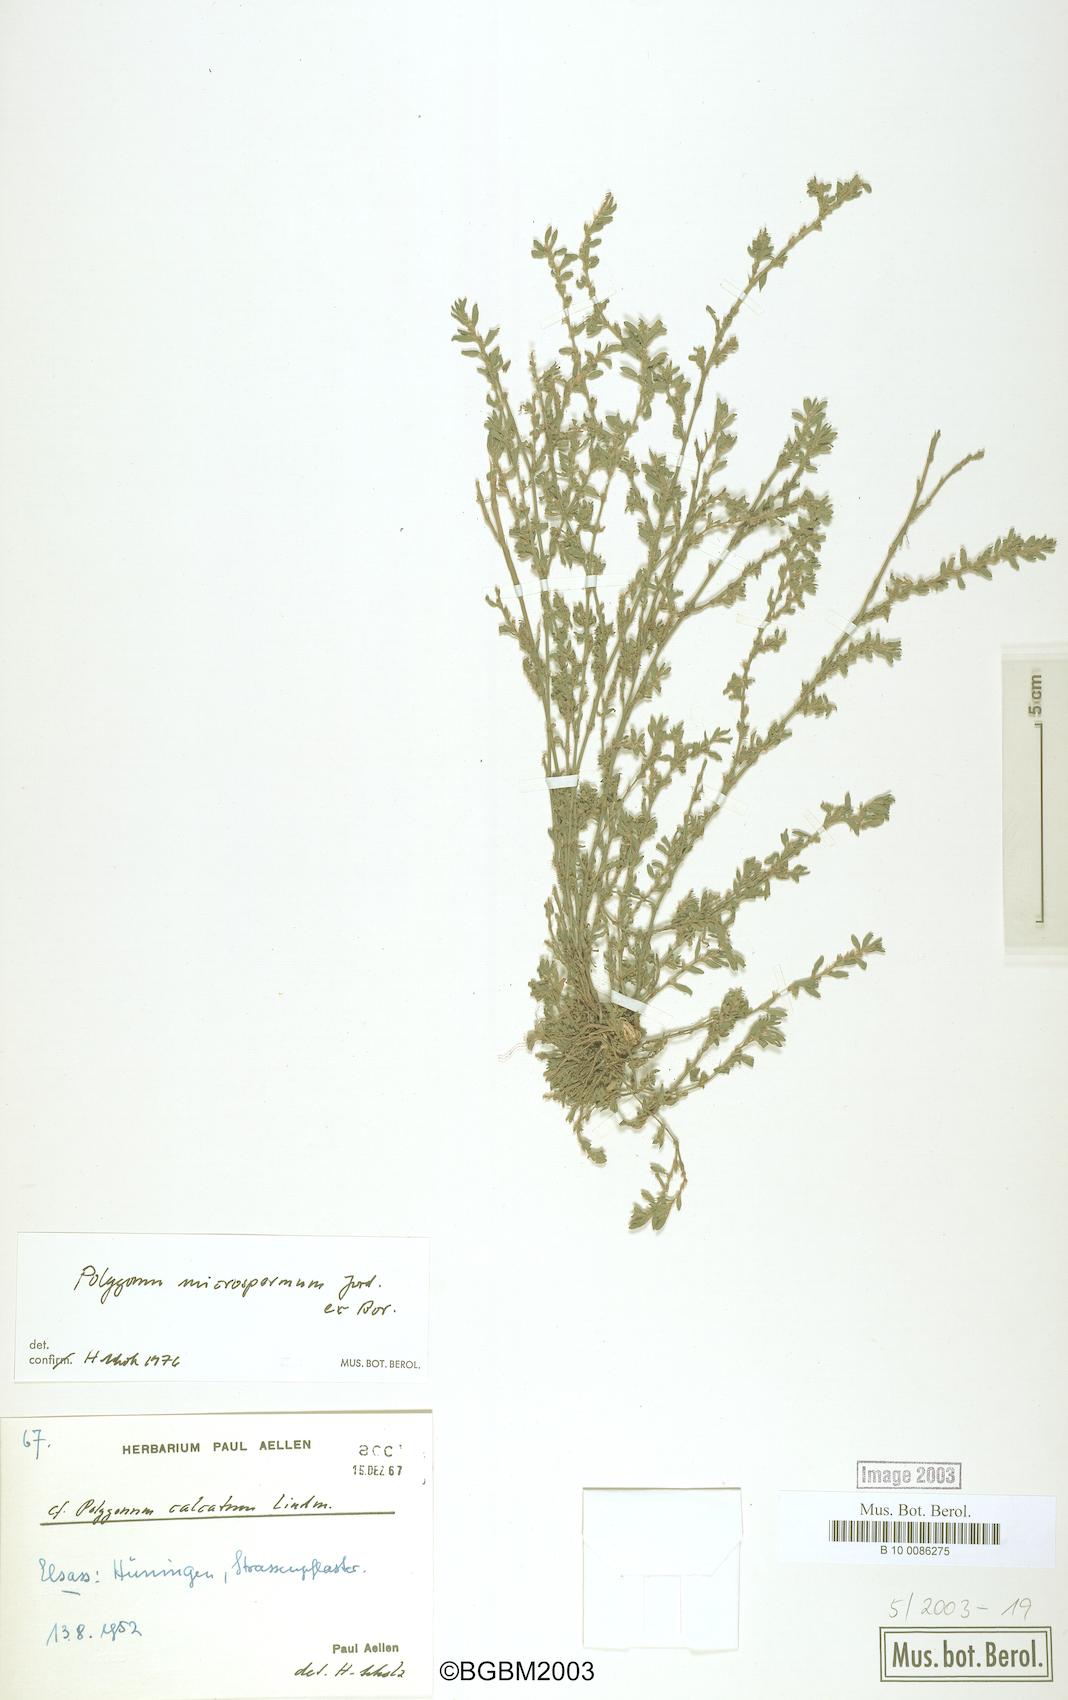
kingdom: Plantae
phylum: Tracheophyta
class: Magnoliopsida
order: Caryophyllales
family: Polygonaceae
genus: Polygonum
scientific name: Polygonum
